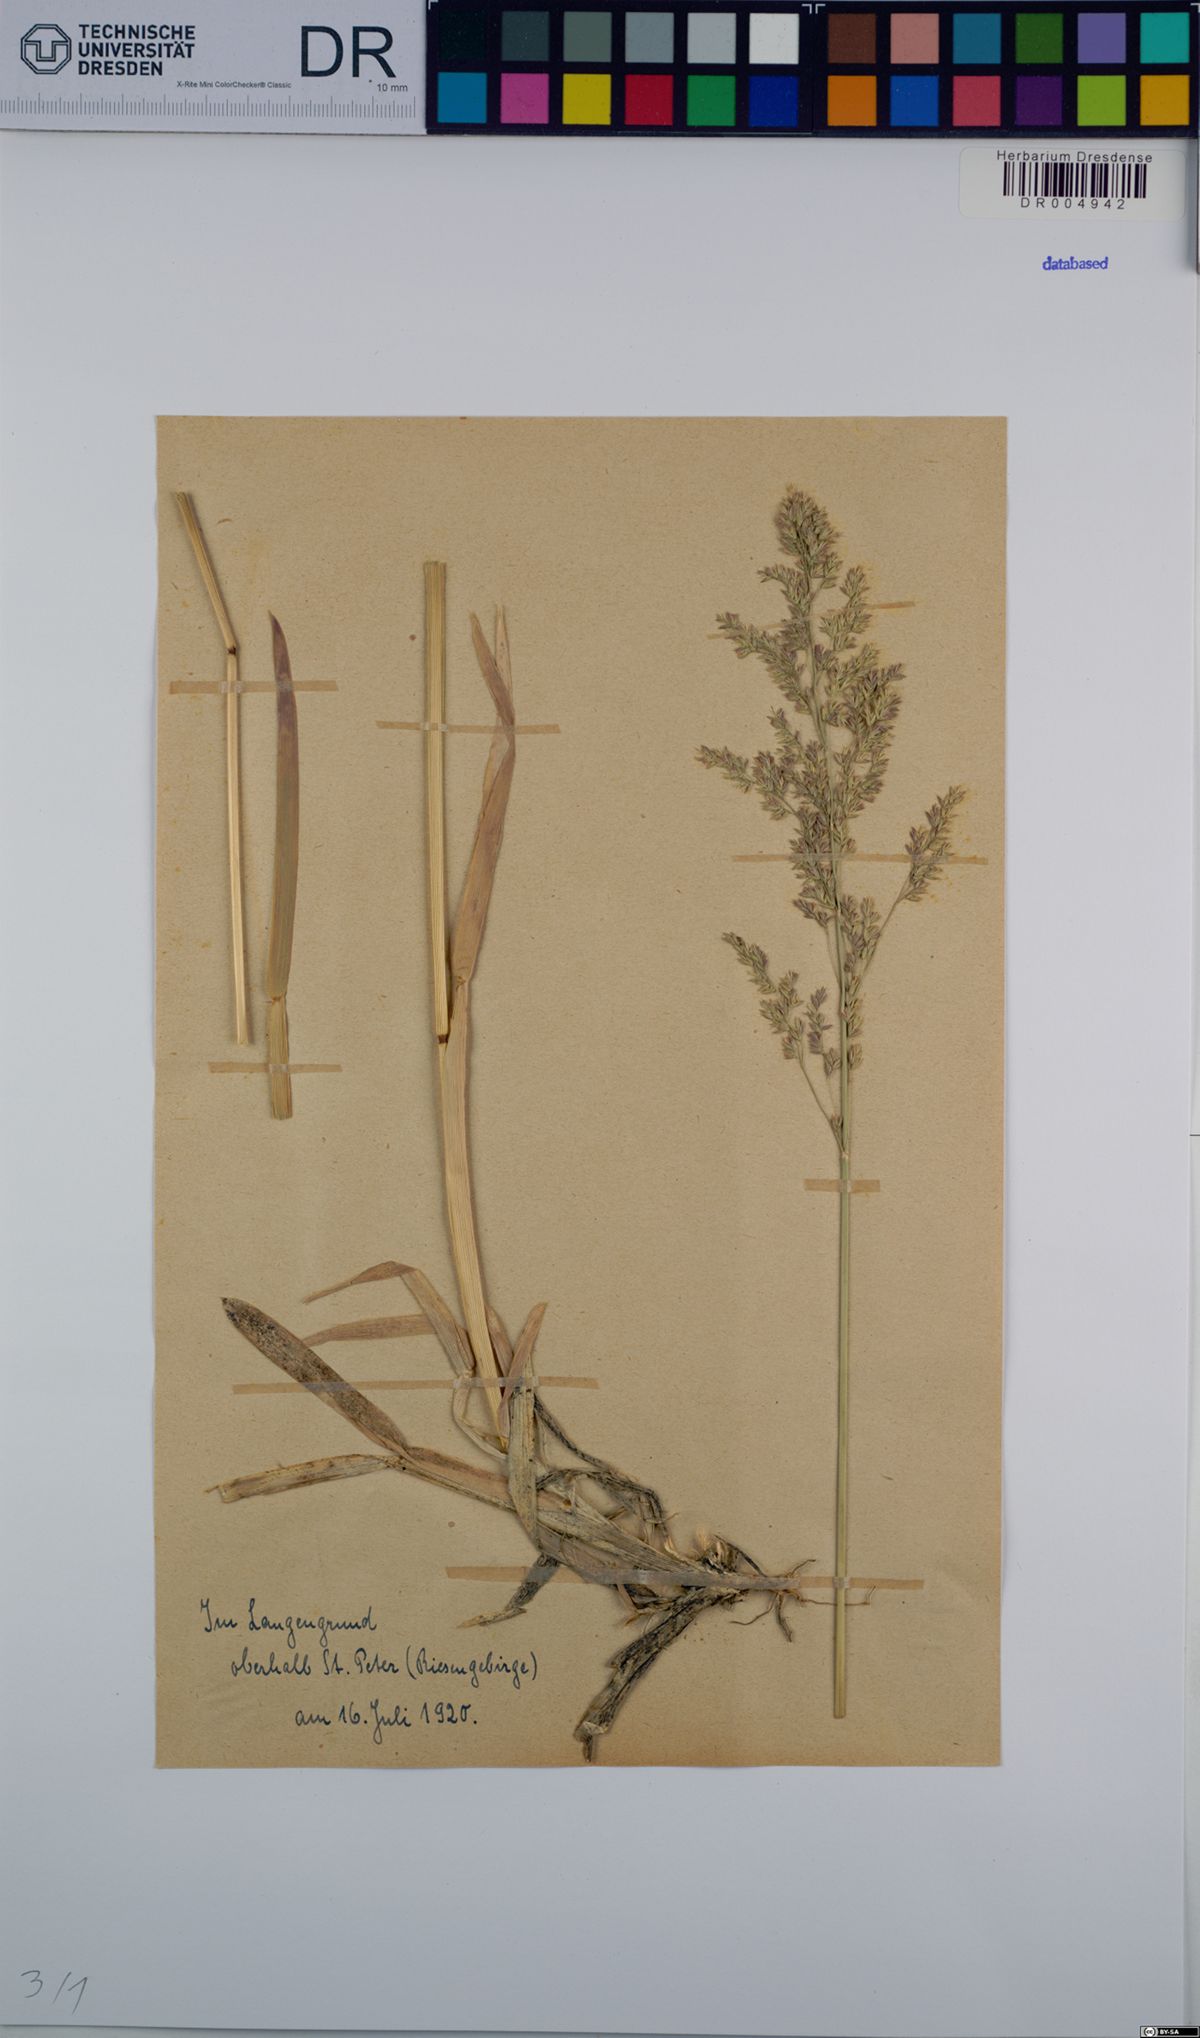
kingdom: Plantae
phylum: Tracheophyta
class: Liliopsida
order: Poales
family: Poaceae
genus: Poa
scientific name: Poa chaixii
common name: Broad-leaved meadow-grass
